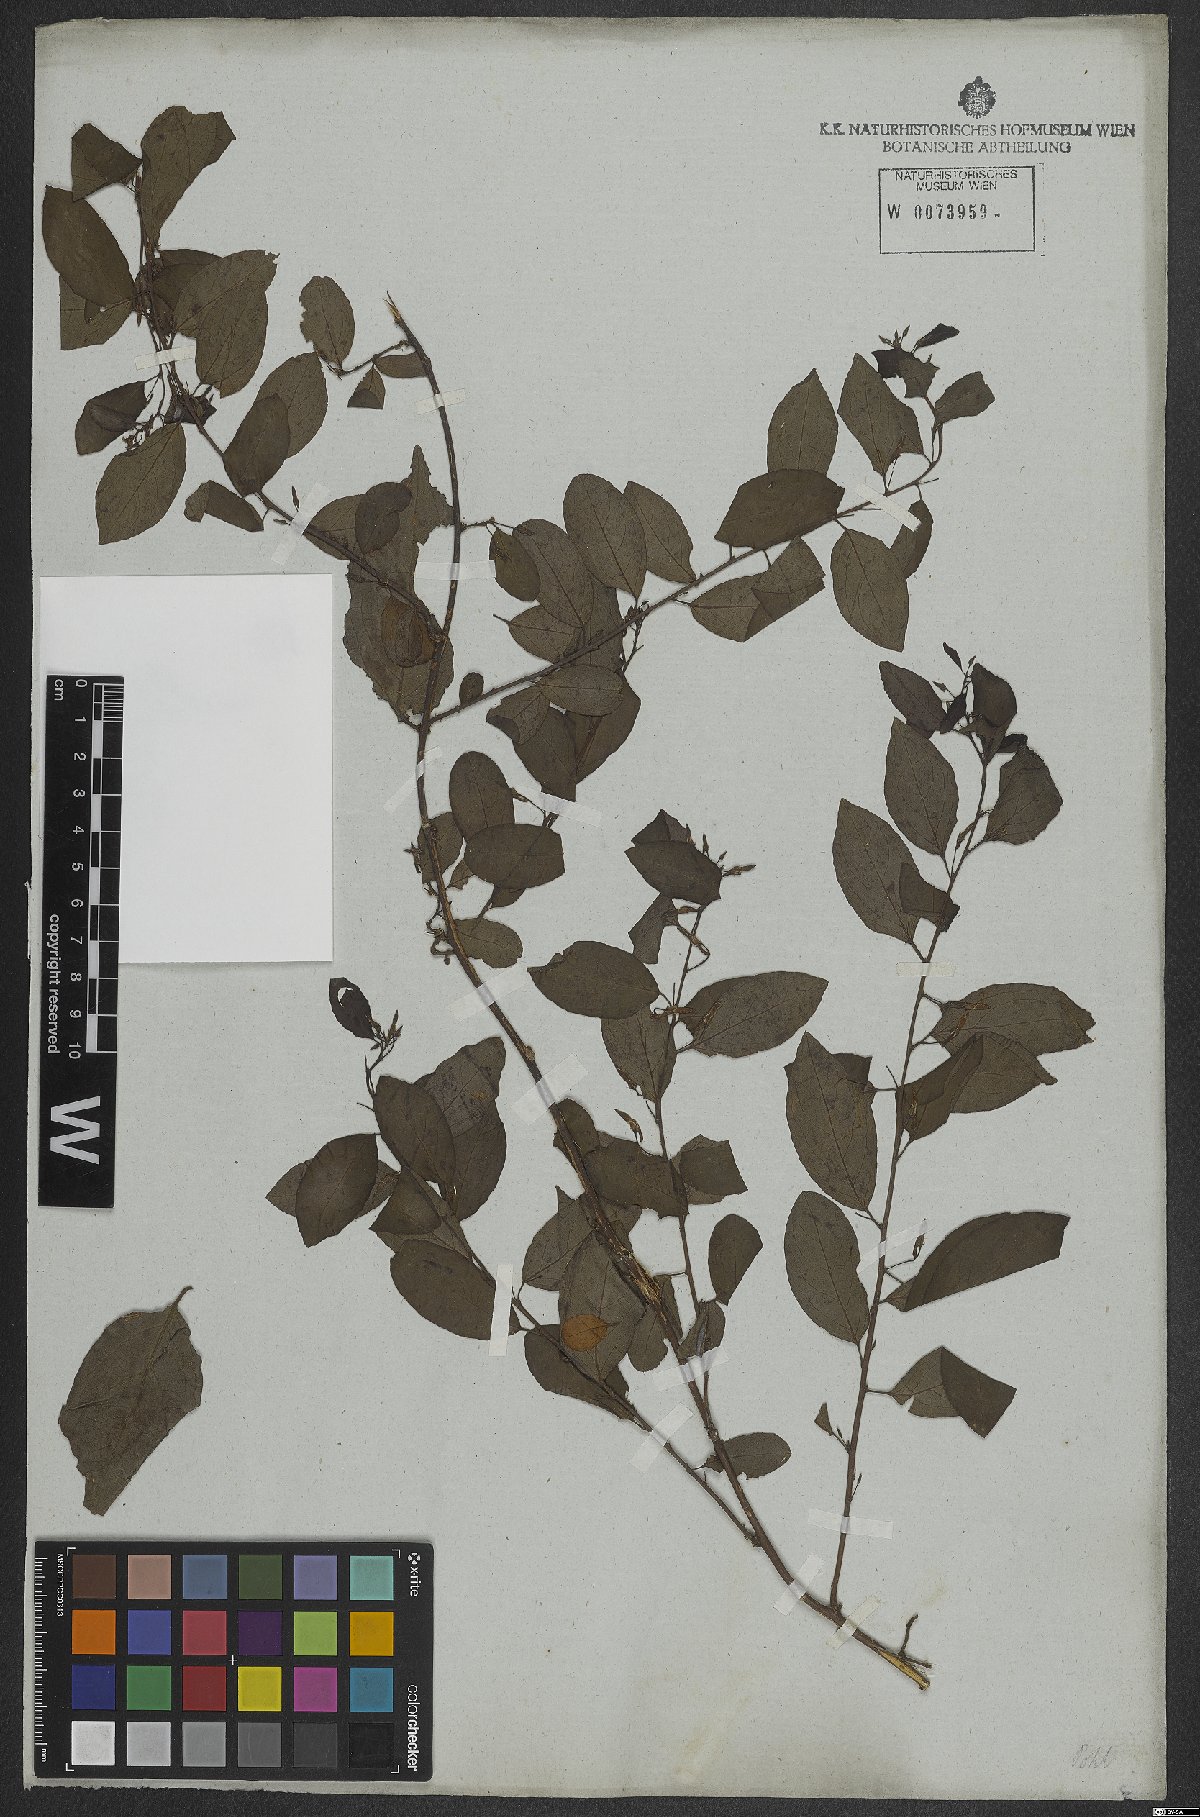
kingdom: Plantae
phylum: Tracheophyta
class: Magnoliopsida
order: Malpighiales
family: Violaceae
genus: Anchietea
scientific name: Anchietea pyrifolia
